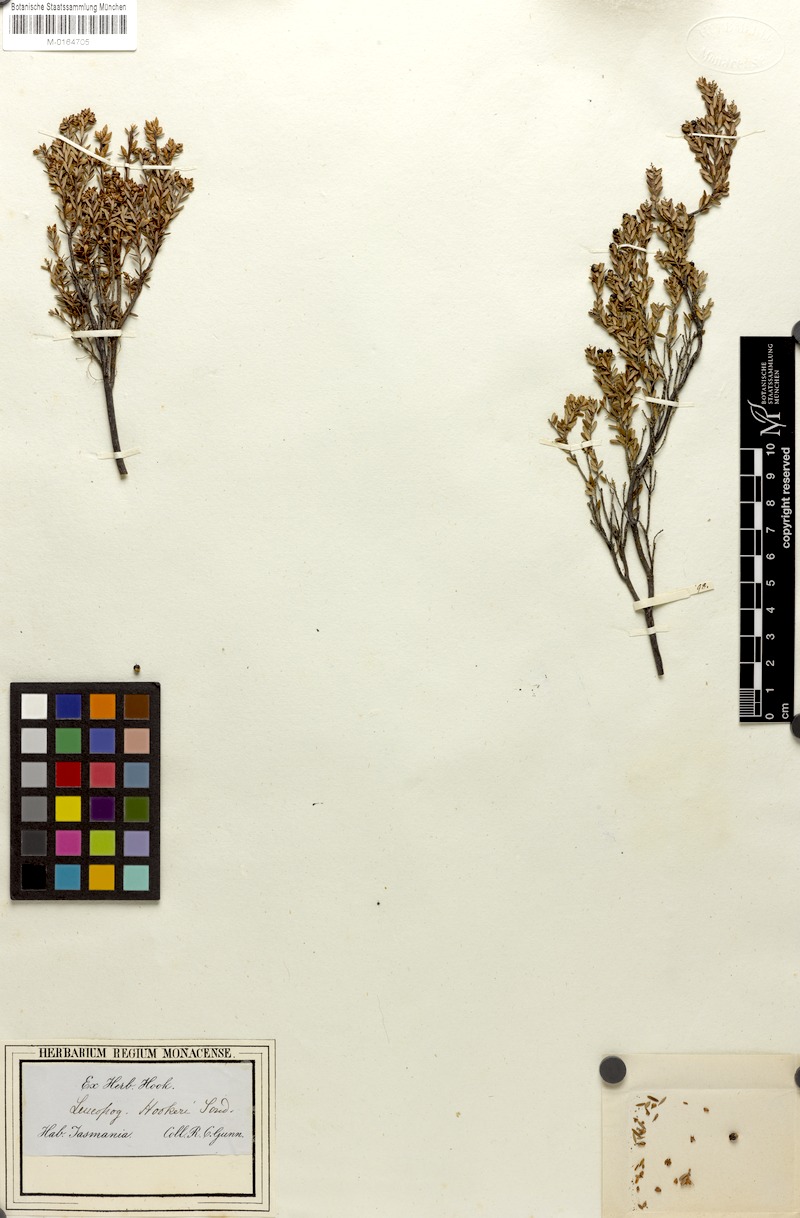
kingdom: Plantae
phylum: Tracheophyta
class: Magnoliopsida
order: Ericales
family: Ericaceae
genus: Acrothamnus
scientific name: Acrothamnus hookeri
